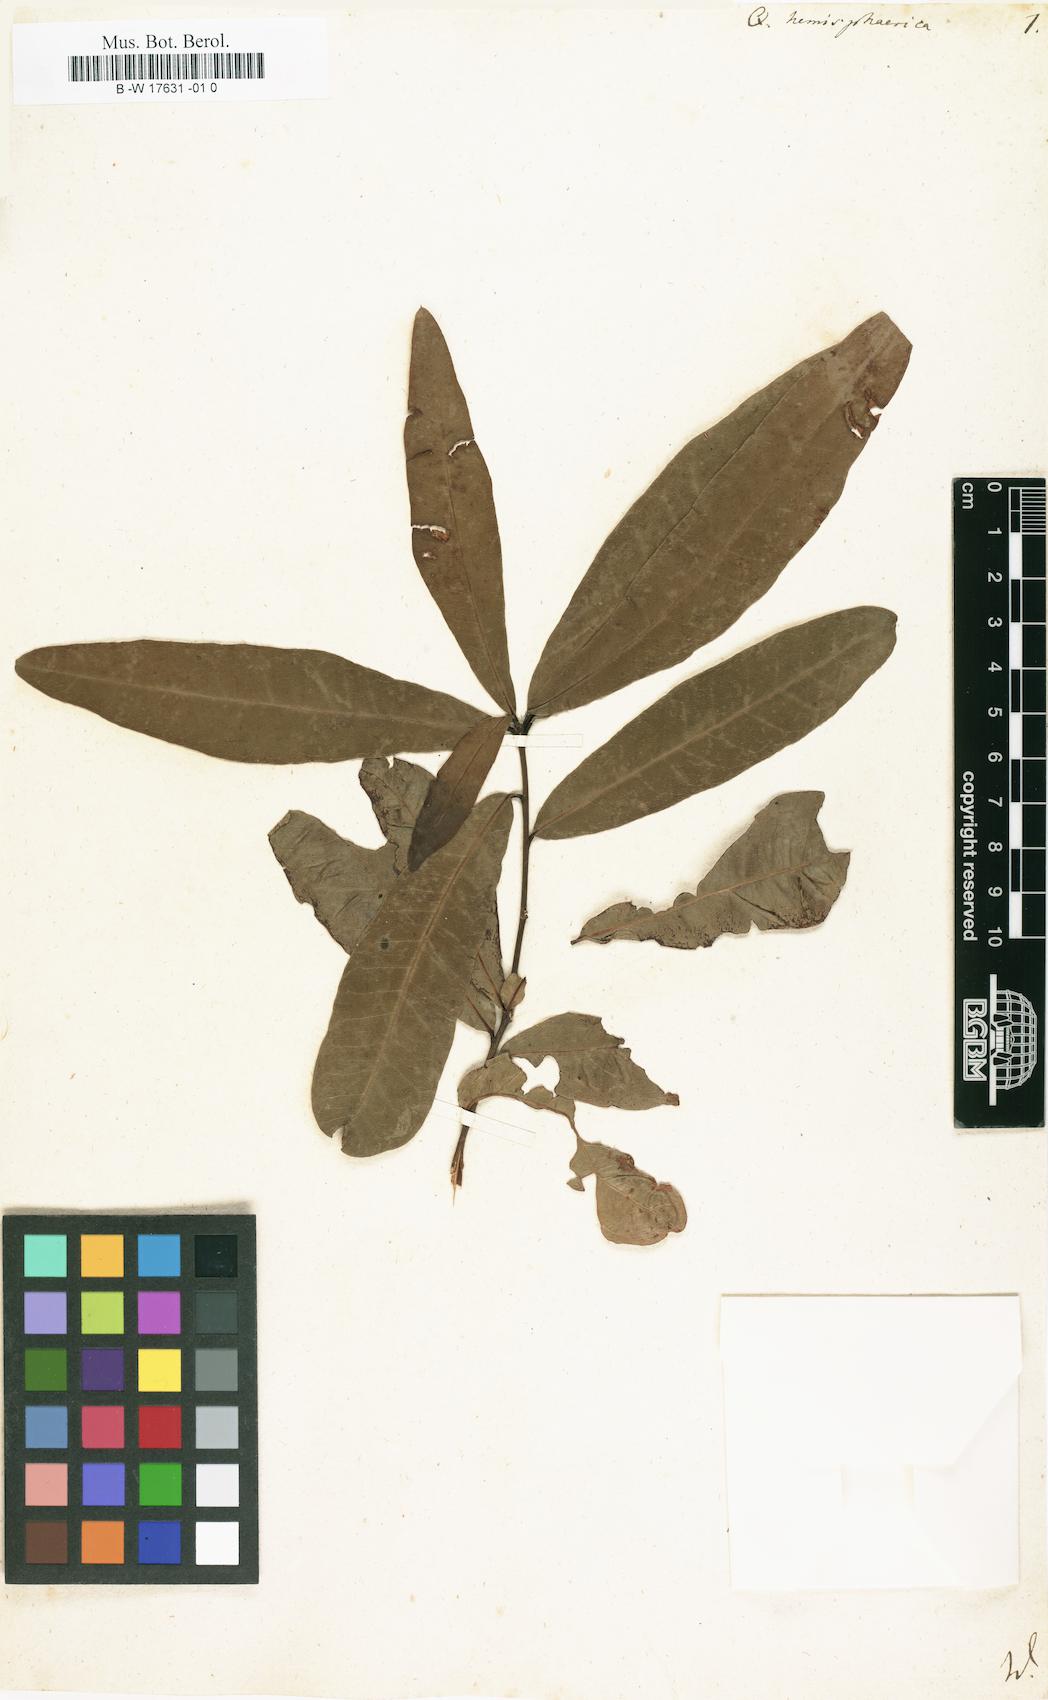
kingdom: Plantae
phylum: Tracheophyta
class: Magnoliopsida
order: Fagales
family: Fagaceae
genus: Quercus
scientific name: Quercus hemisphaerica
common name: Darlington oak
